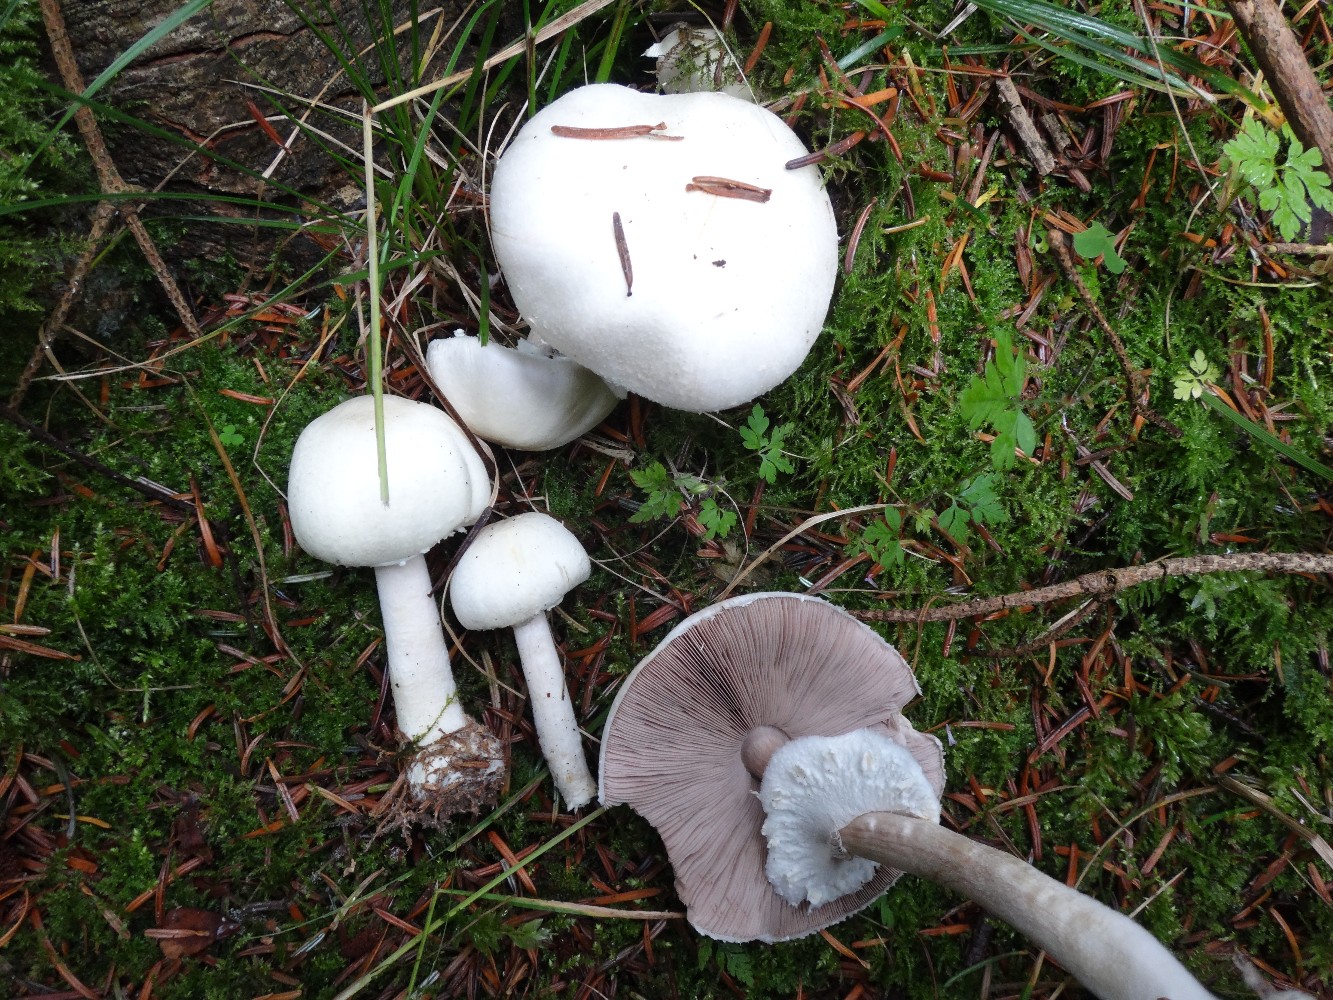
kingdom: Fungi
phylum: Basidiomycota
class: Agaricomycetes
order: Agaricales
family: Agaricaceae
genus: Agaricus
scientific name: Agaricus sylvicola
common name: gulhvid champignon
